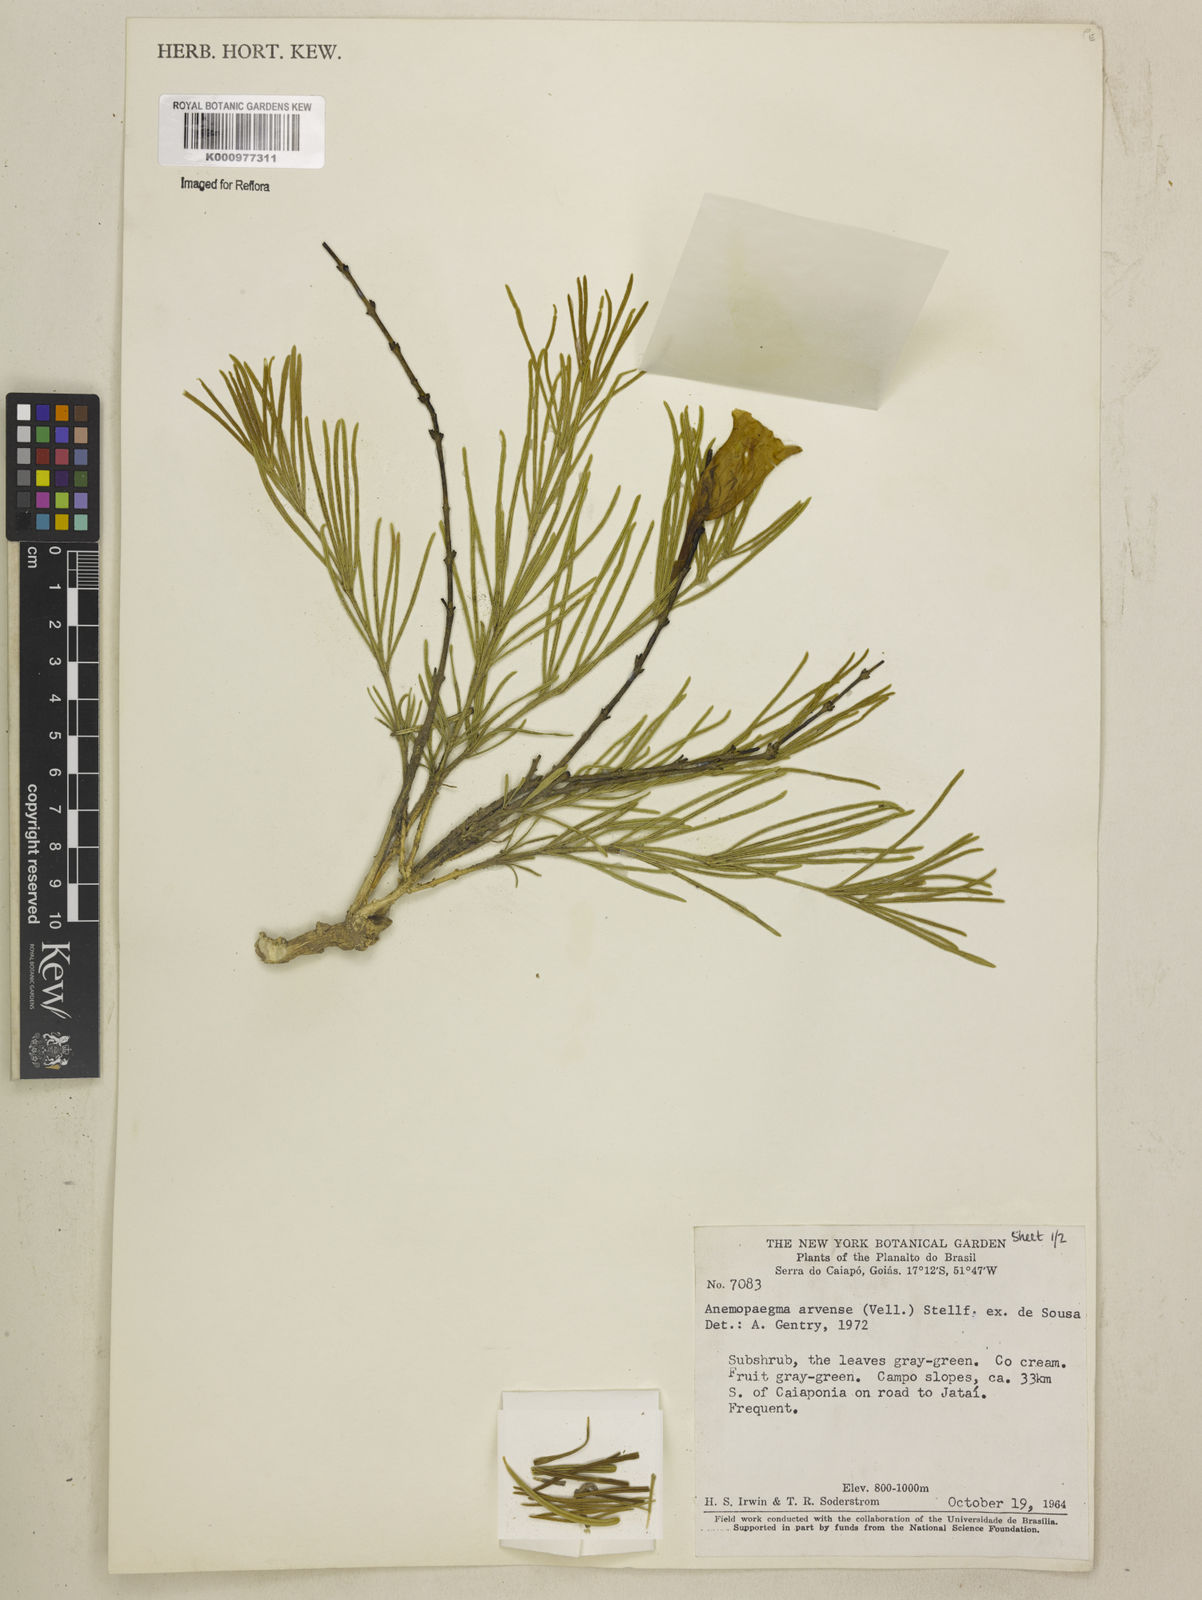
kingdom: Plantae
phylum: Tracheophyta
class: Magnoliopsida
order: Lamiales
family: Bignoniaceae
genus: Anemopaegma
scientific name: Anemopaegma arvense
